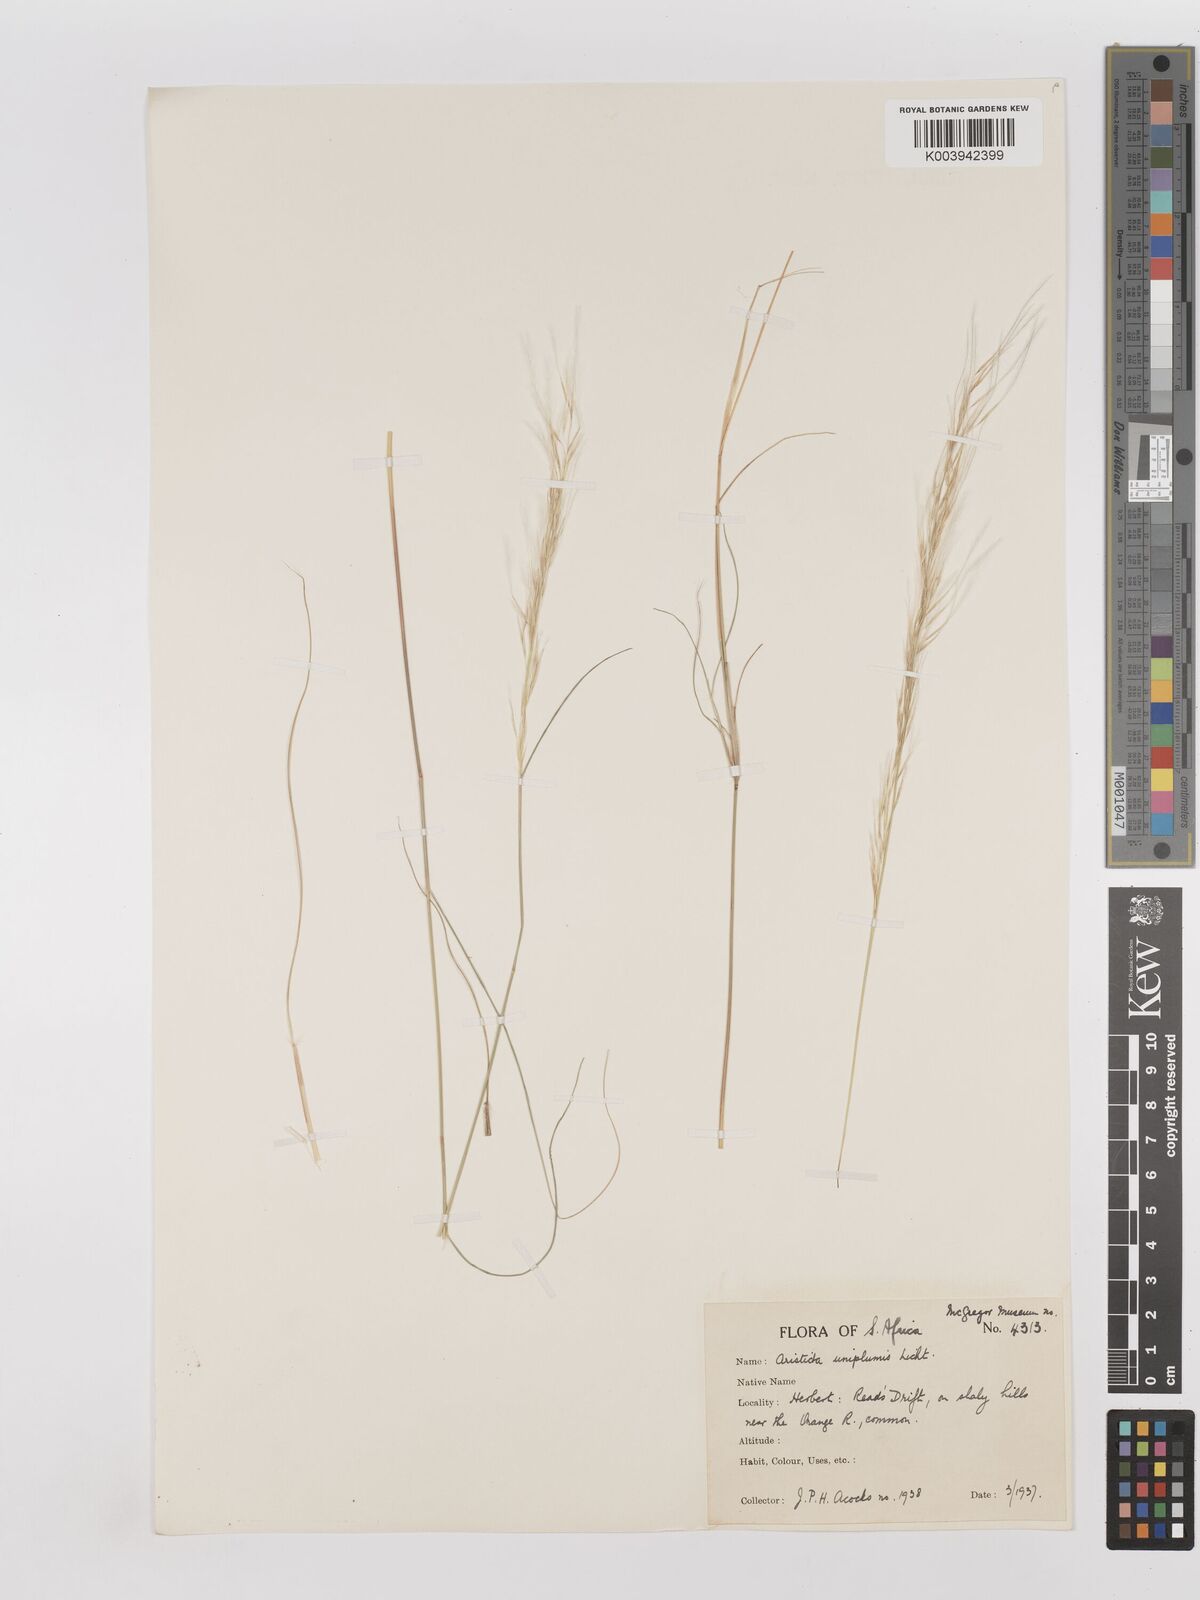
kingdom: Plantae
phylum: Tracheophyta
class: Liliopsida
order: Poales
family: Poaceae
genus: Stipagrostis
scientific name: Stipagrostis uniplumis
